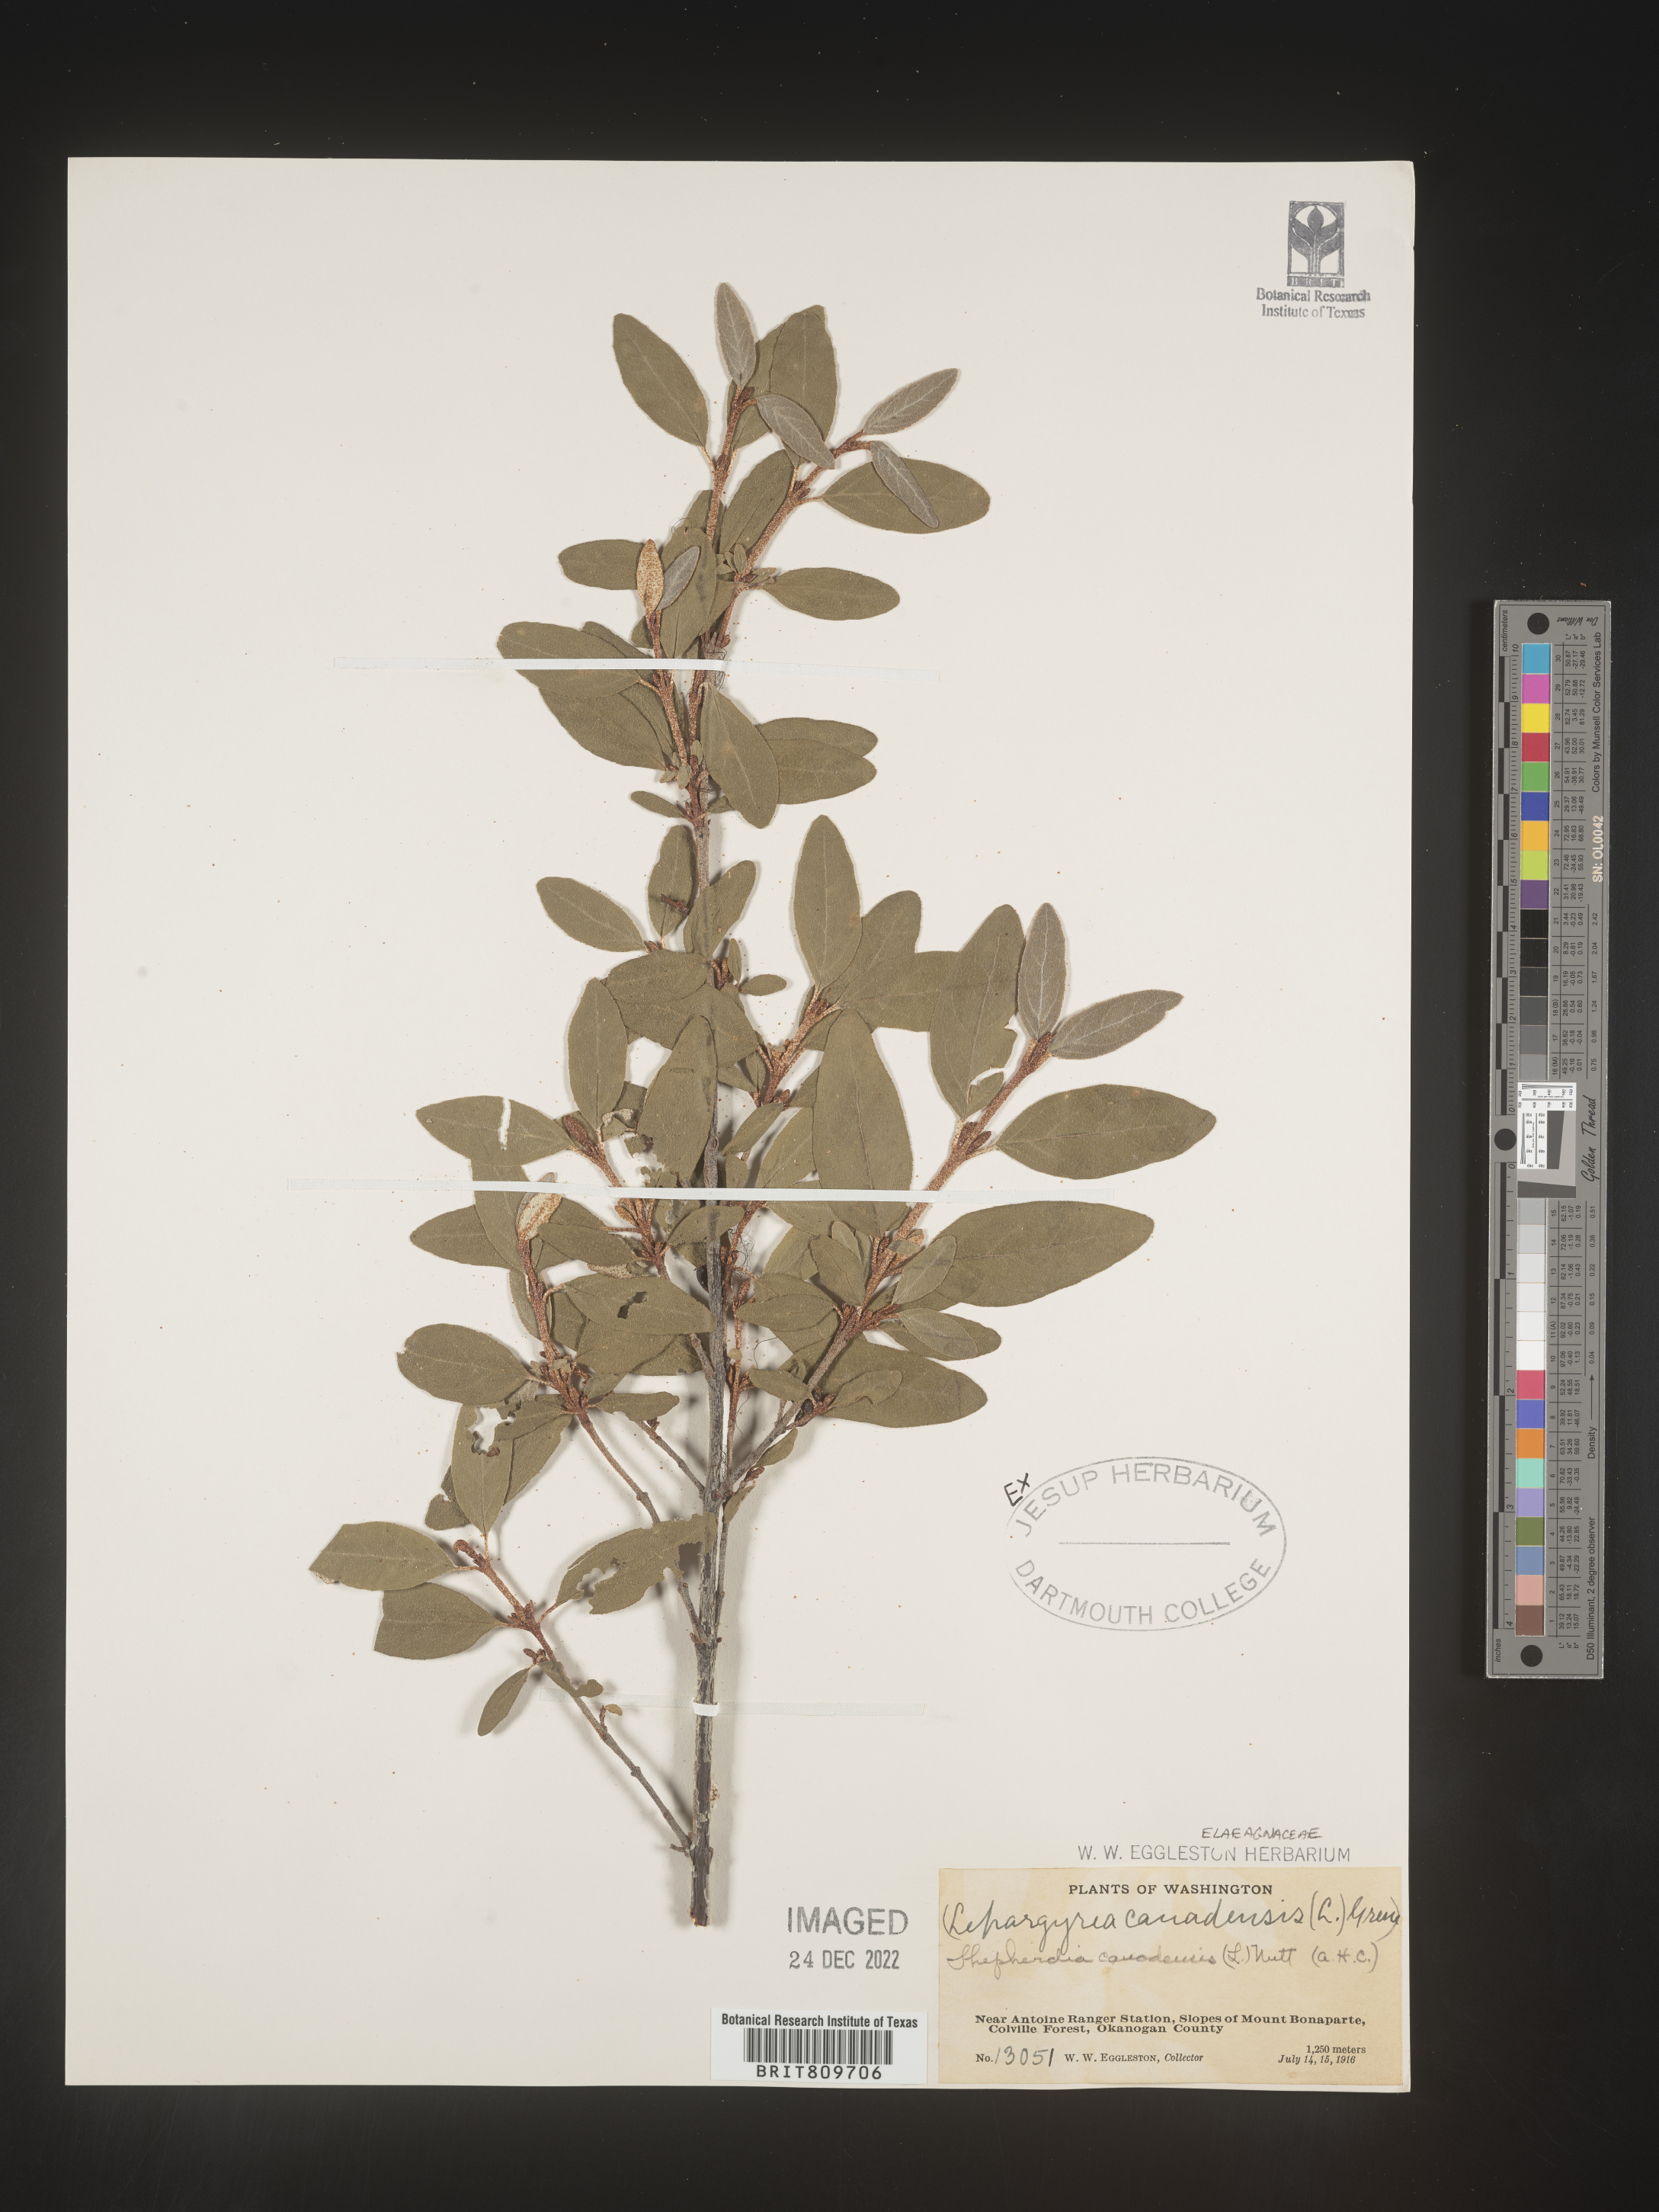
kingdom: Plantae
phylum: Tracheophyta
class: Magnoliopsida
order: Rosales
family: Elaeagnaceae
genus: Shepherdia
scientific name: Shepherdia canadensis
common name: Soapberry
